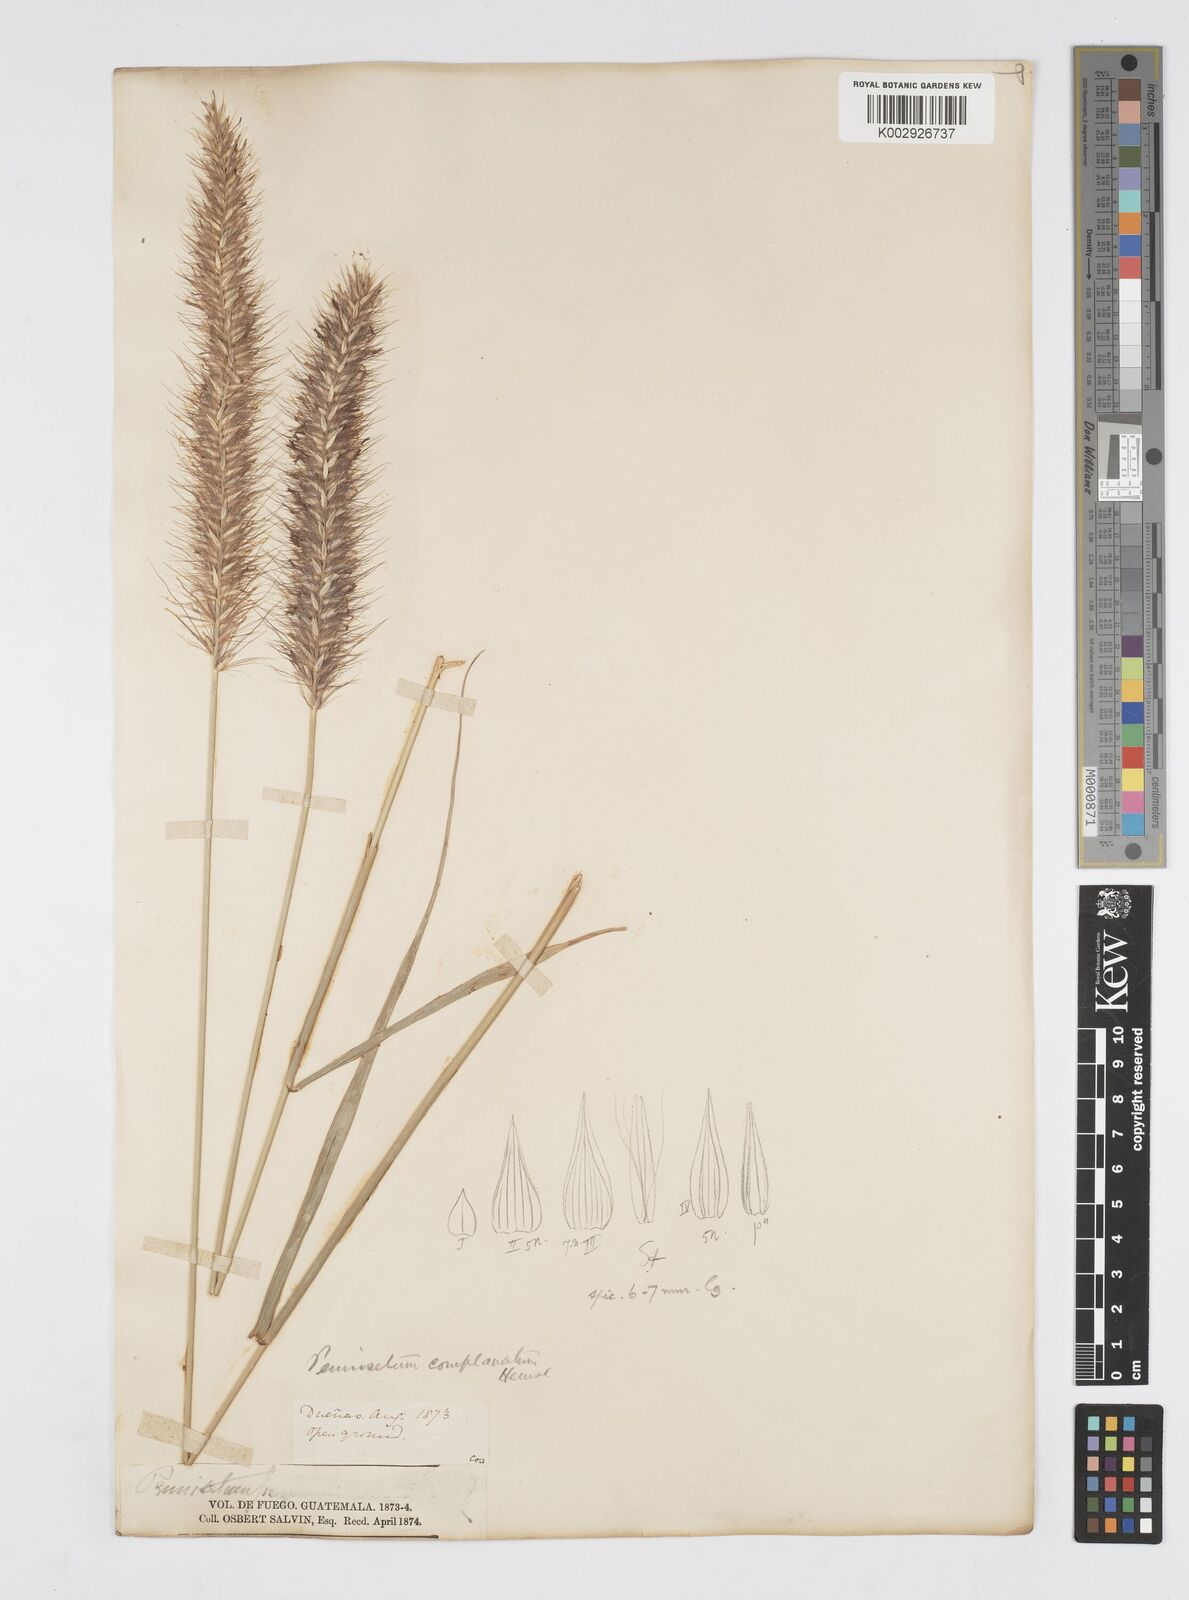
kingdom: Plantae
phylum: Tracheophyta
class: Liliopsida
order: Poales
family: Poaceae
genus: Cenchrus
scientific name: Cenchrus complanatus
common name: Nicaraguan fountaingrass
